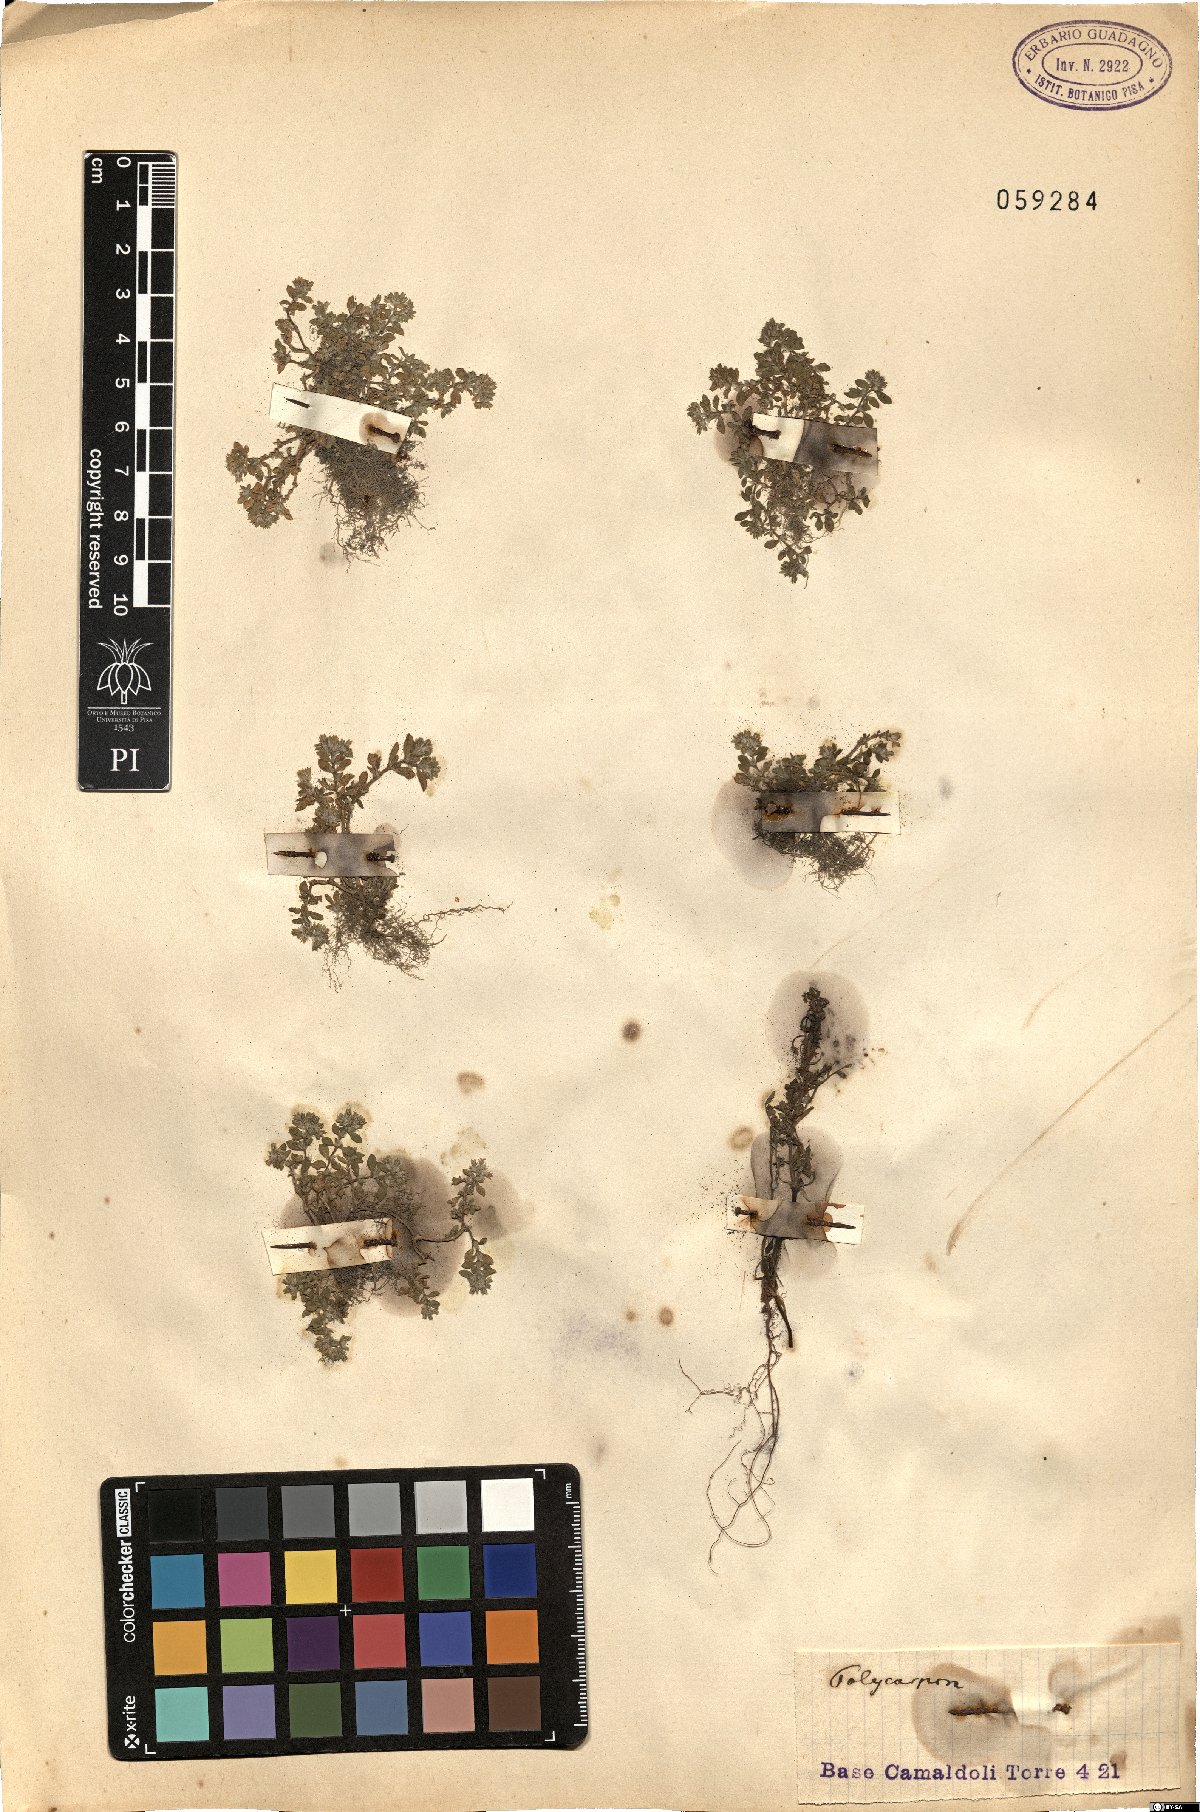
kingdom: Plantae
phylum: Tracheophyta
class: Magnoliopsida
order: Caryophyllales
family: Caryophyllaceae
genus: Polycarpon
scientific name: Polycarpon
